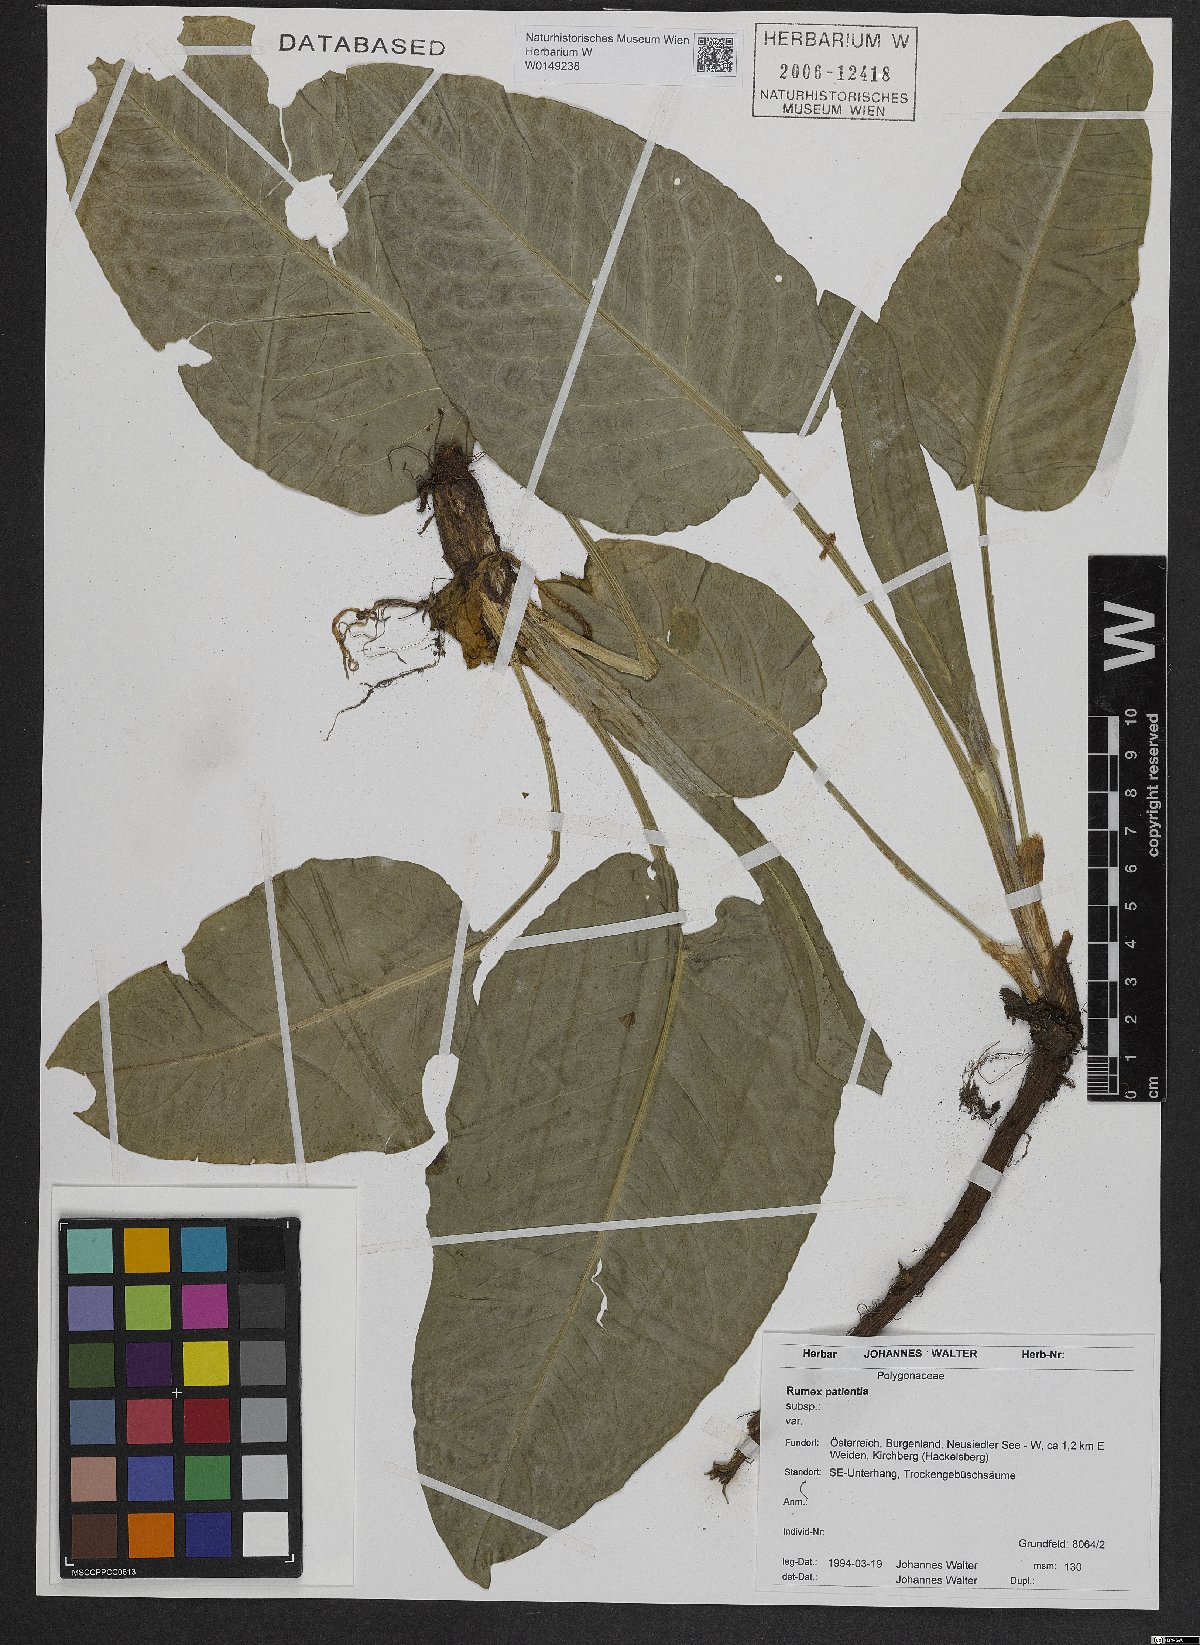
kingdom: Plantae
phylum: Tracheophyta
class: Magnoliopsida
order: Caryophyllales
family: Polygonaceae
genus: Rumex
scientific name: Rumex patientia
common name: Patience dock
